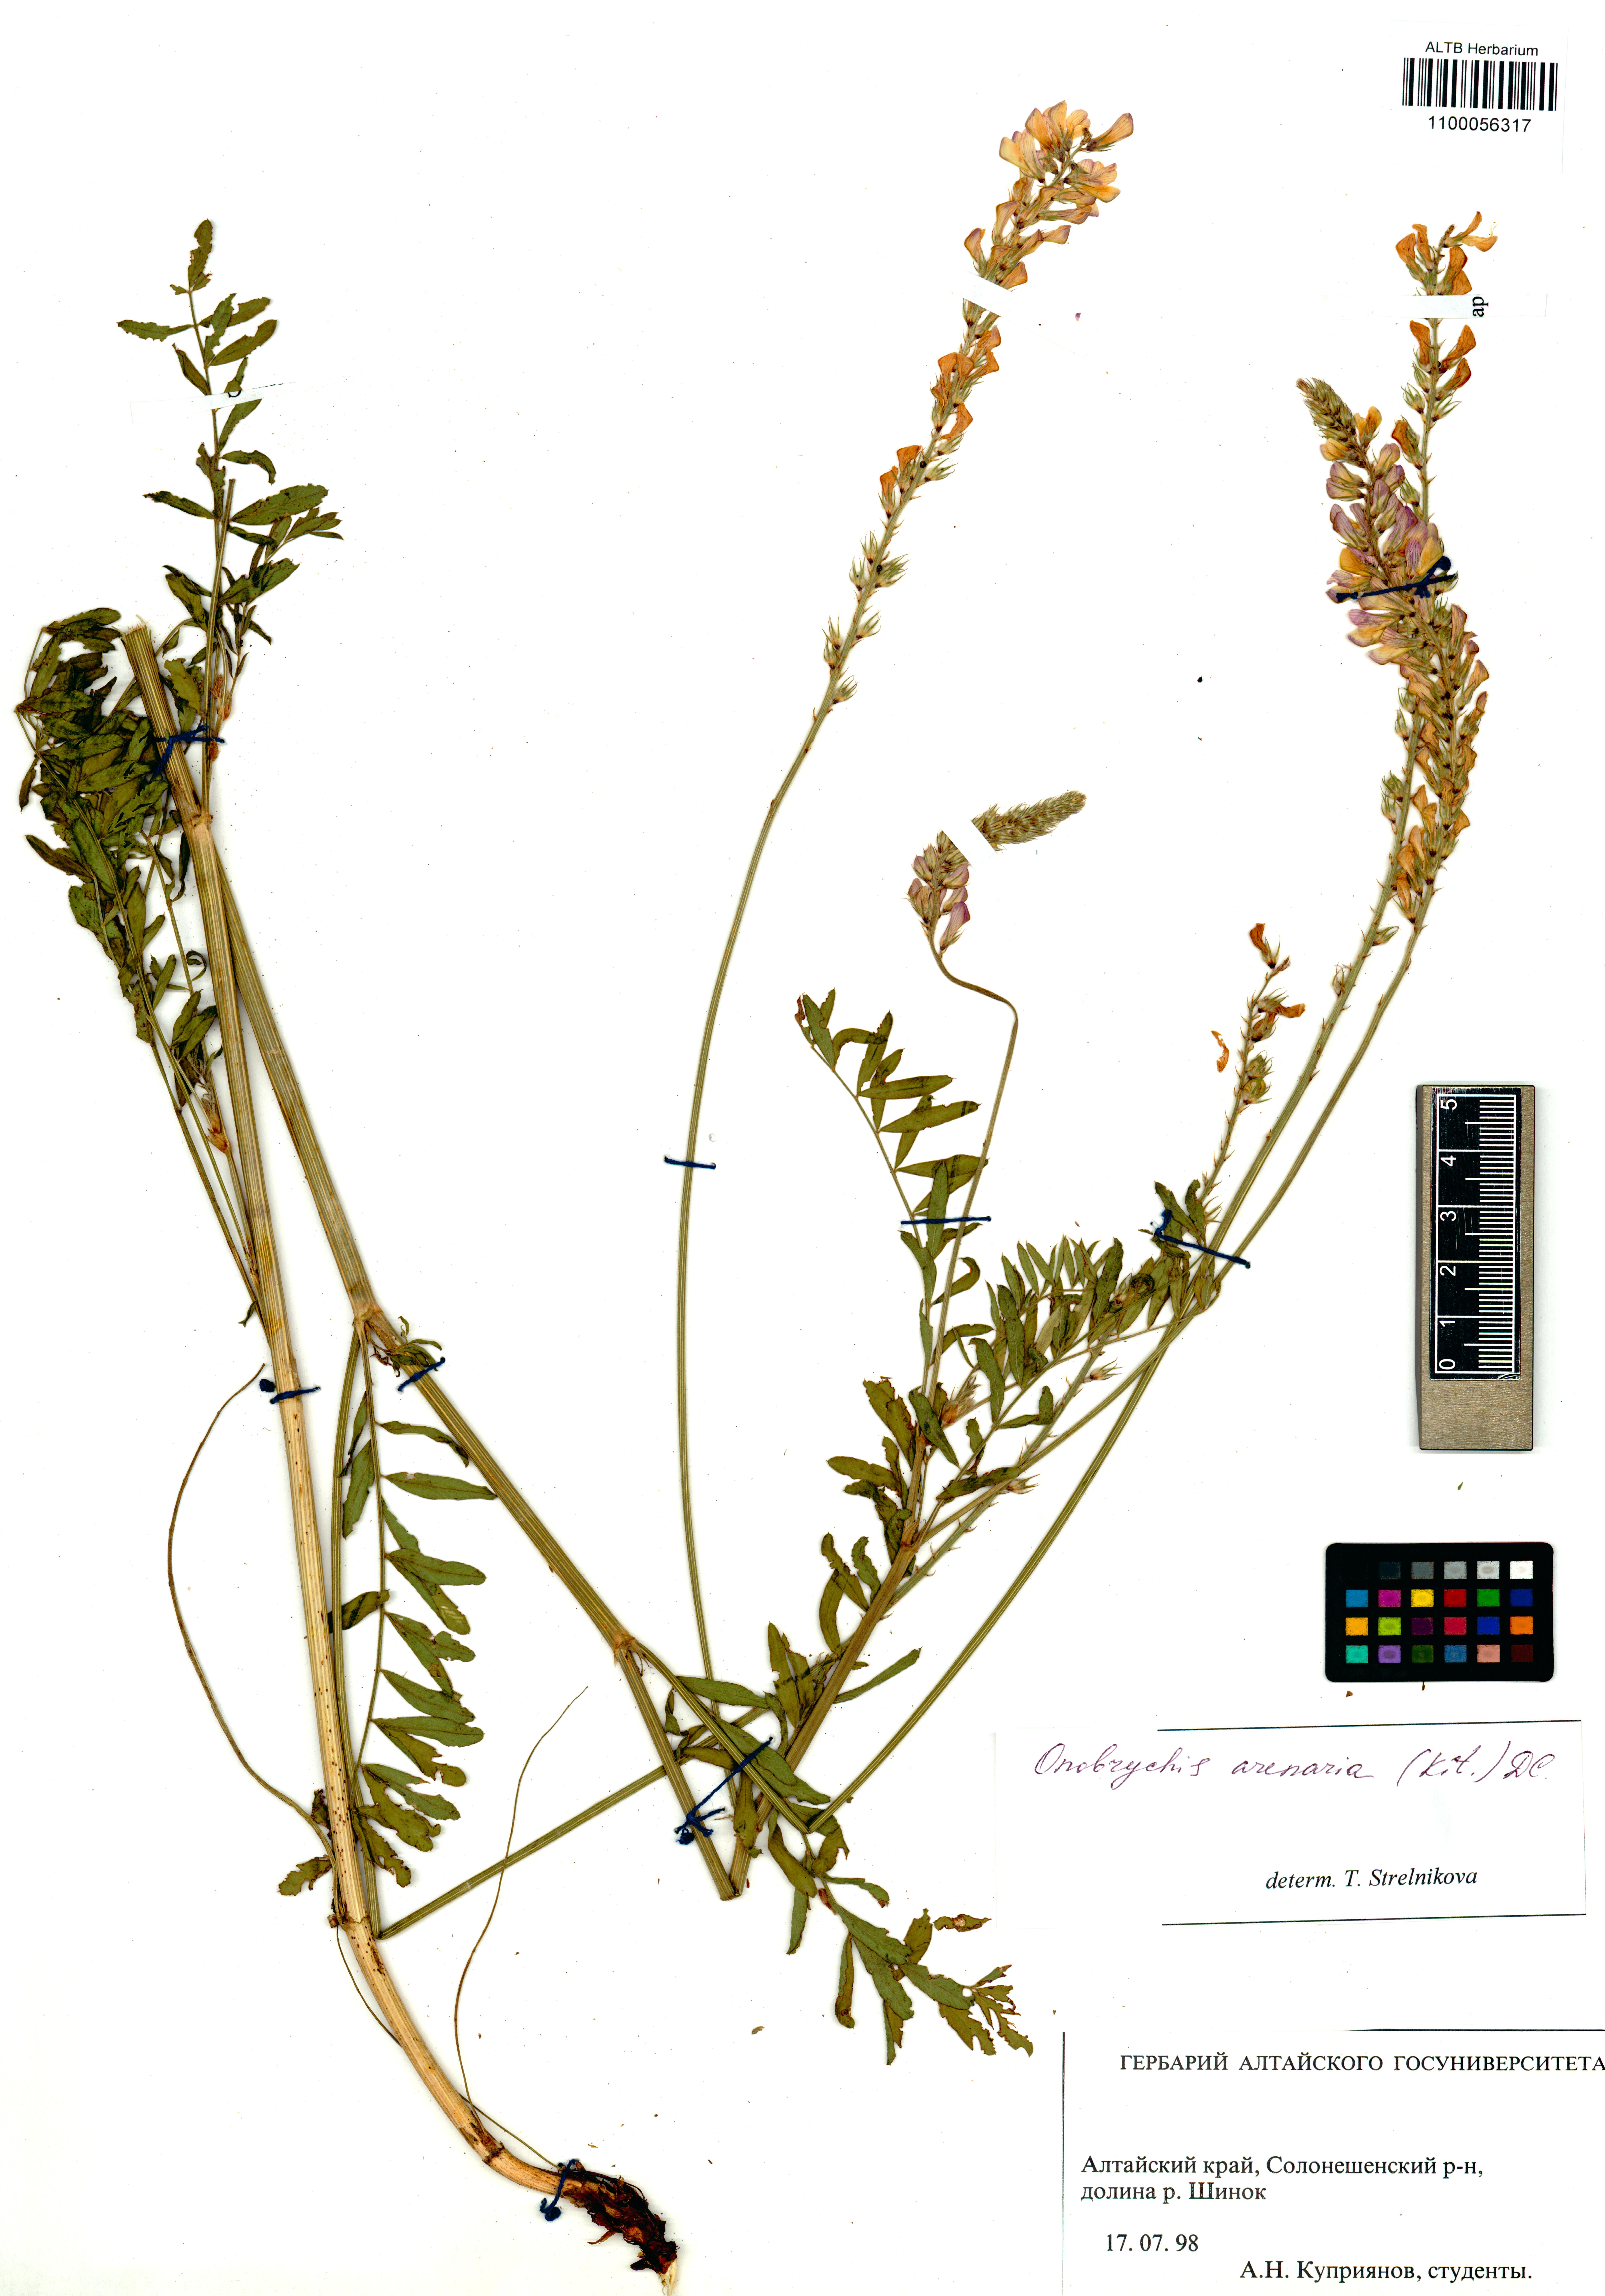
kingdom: Plantae
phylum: Tracheophyta
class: Magnoliopsida
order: Fabales
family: Fabaceae
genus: Onobrychis
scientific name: Onobrychis arenaria
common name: Sand esparcet
